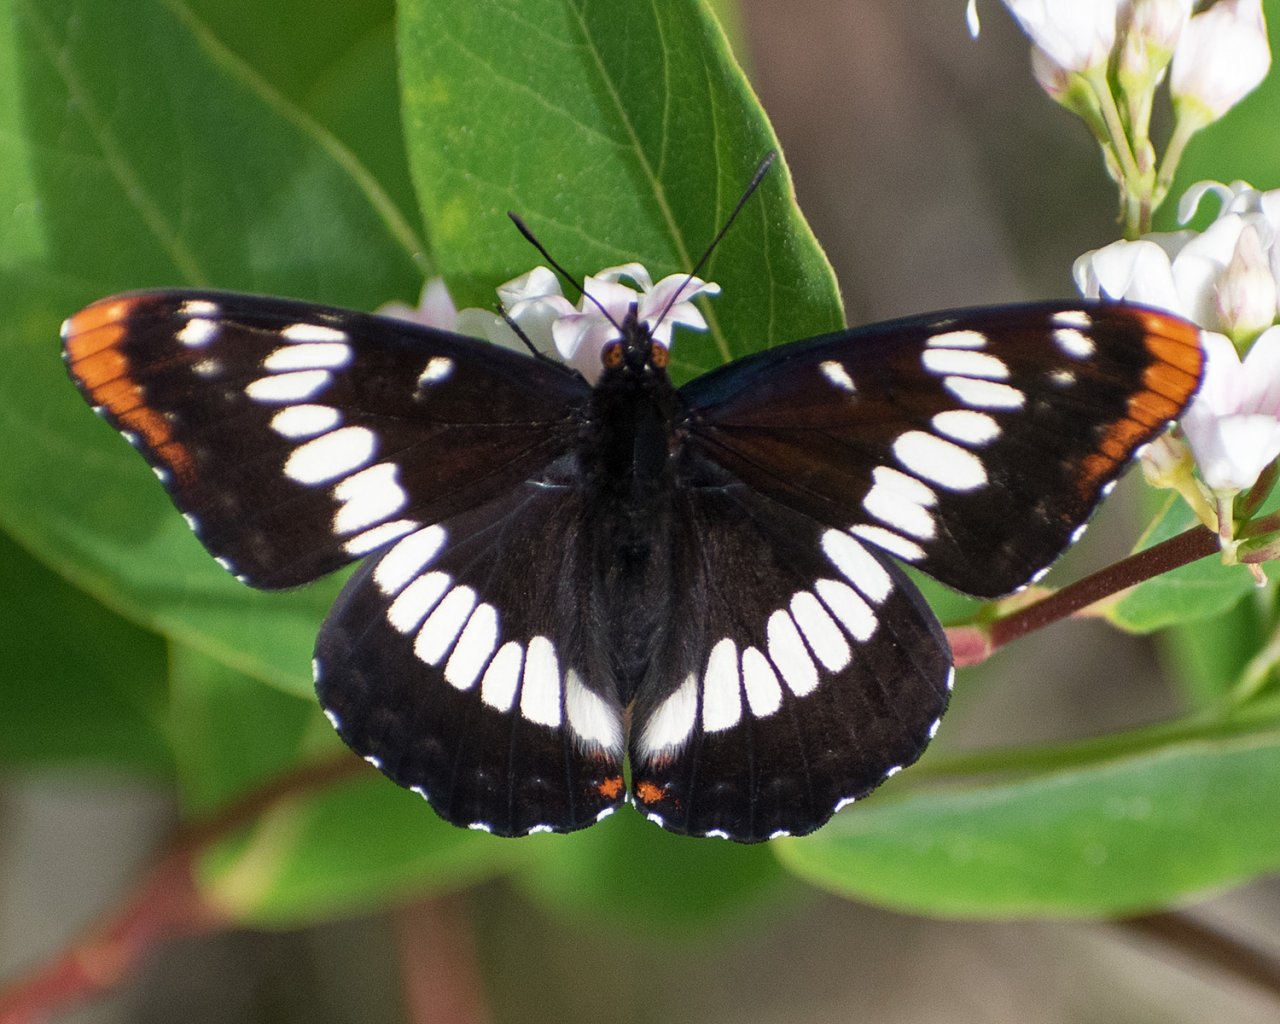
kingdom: Animalia
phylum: Arthropoda
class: Insecta
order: Lepidoptera
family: Nymphalidae
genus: Limenitis
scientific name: Limenitis lorquini
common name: Lorquin's Admiral
